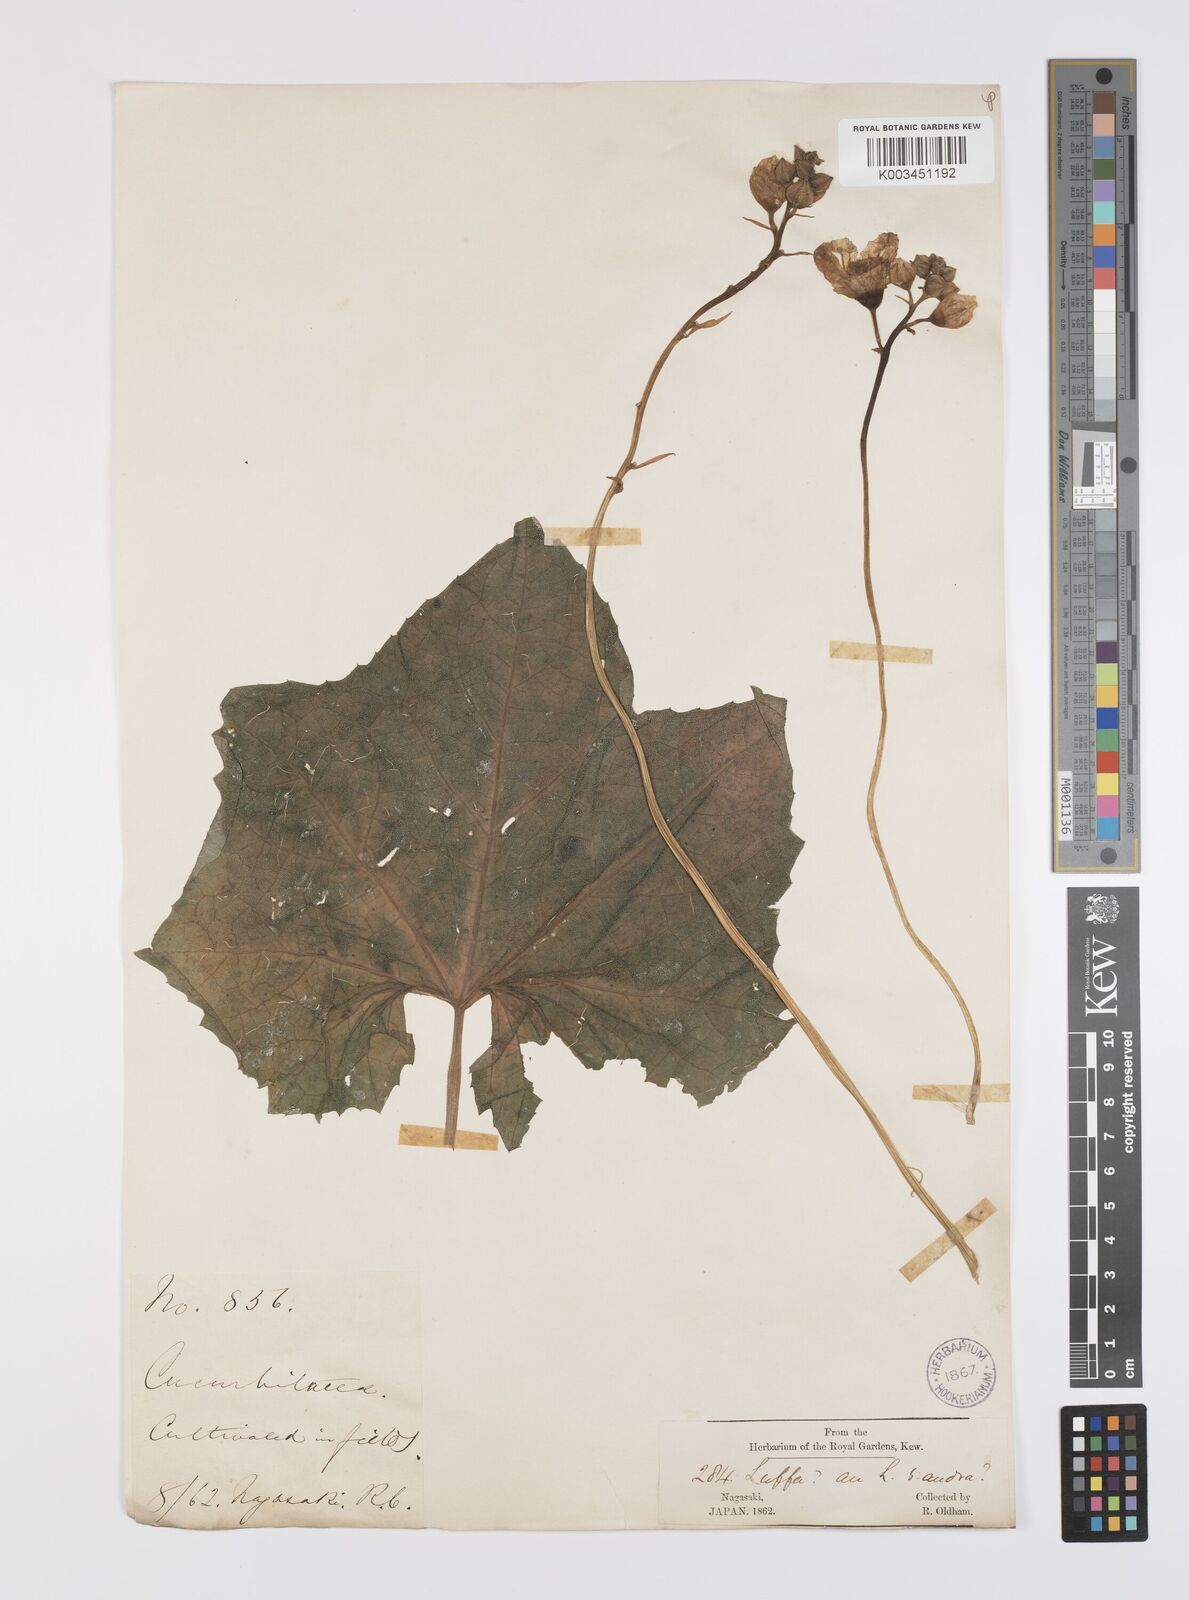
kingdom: Plantae
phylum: Tracheophyta
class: Magnoliopsida
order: Cucurbitales
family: Cucurbitaceae
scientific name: Cucurbitaceae
